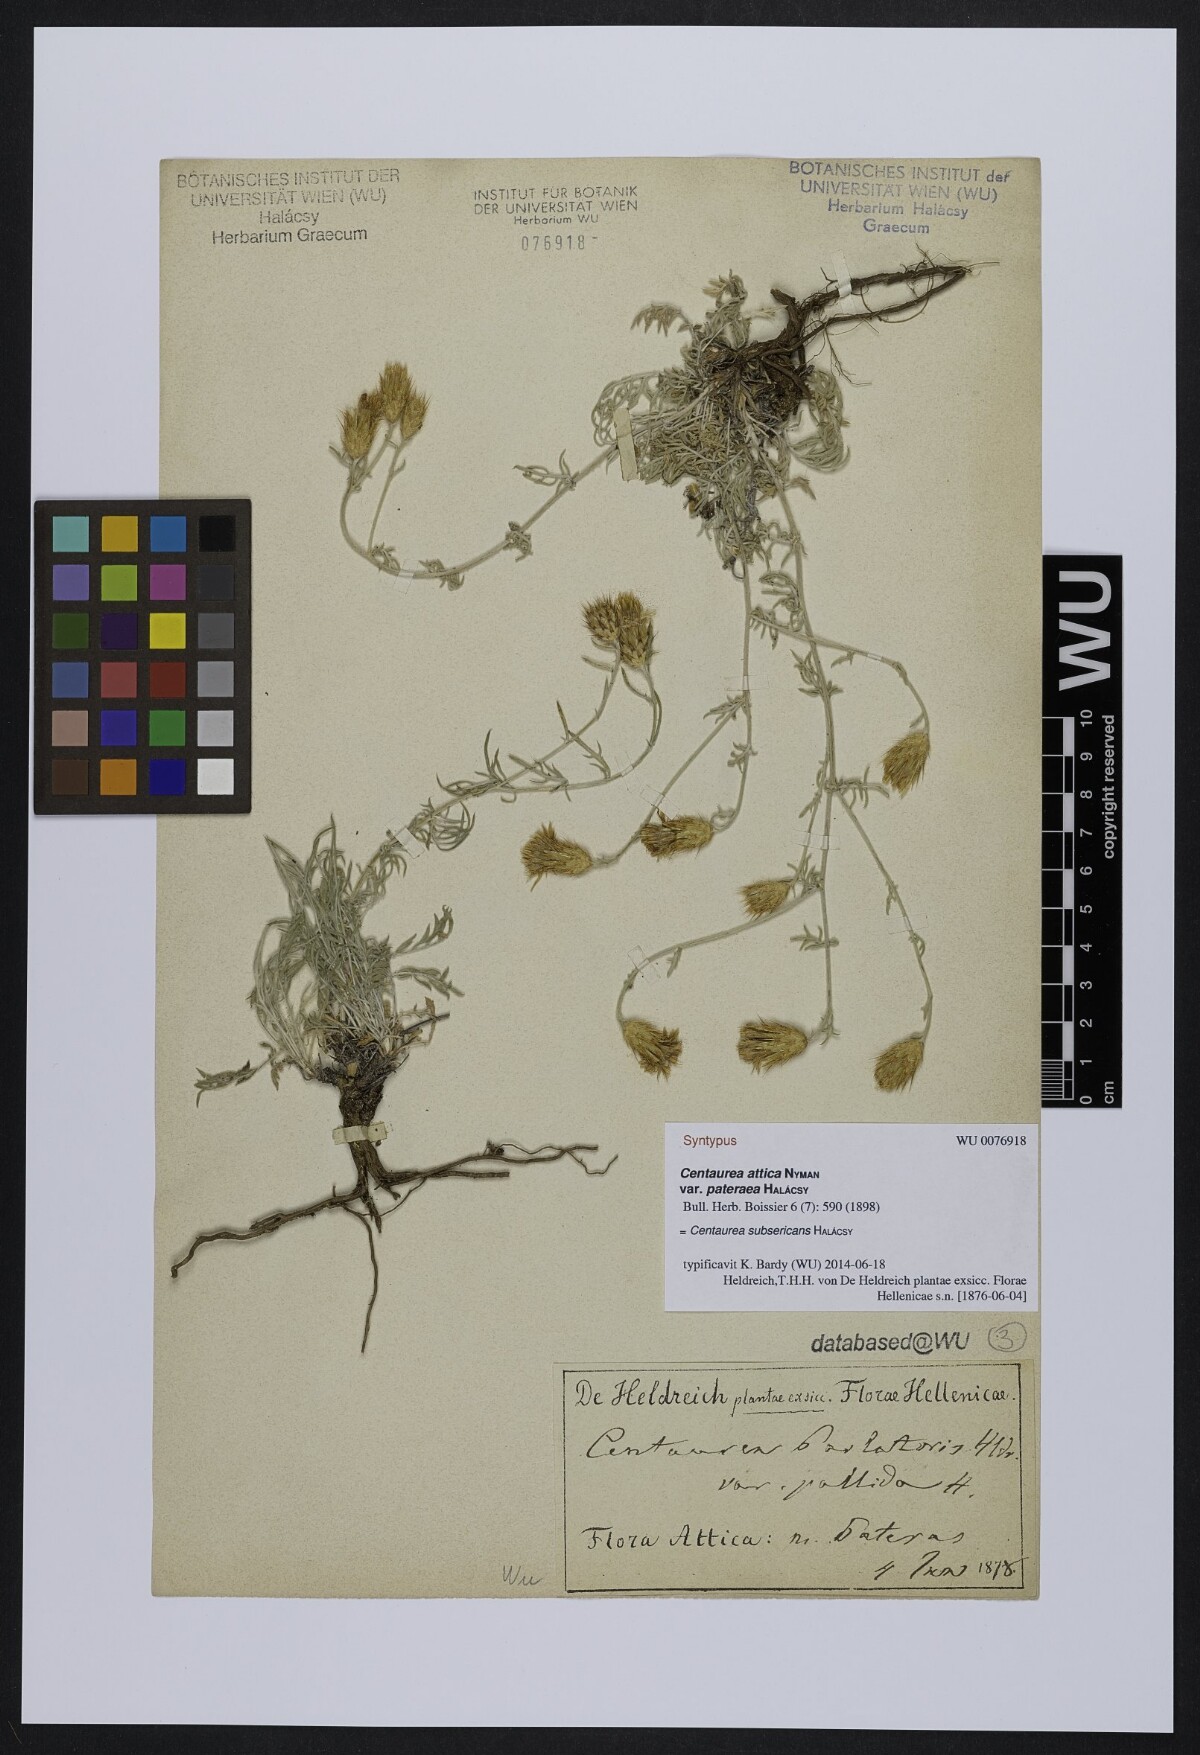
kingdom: Plantae
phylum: Tracheophyta
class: Magnoliopsida
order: Asterales
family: Asteraceae
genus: Centaurea
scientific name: Centaurea subsericans
